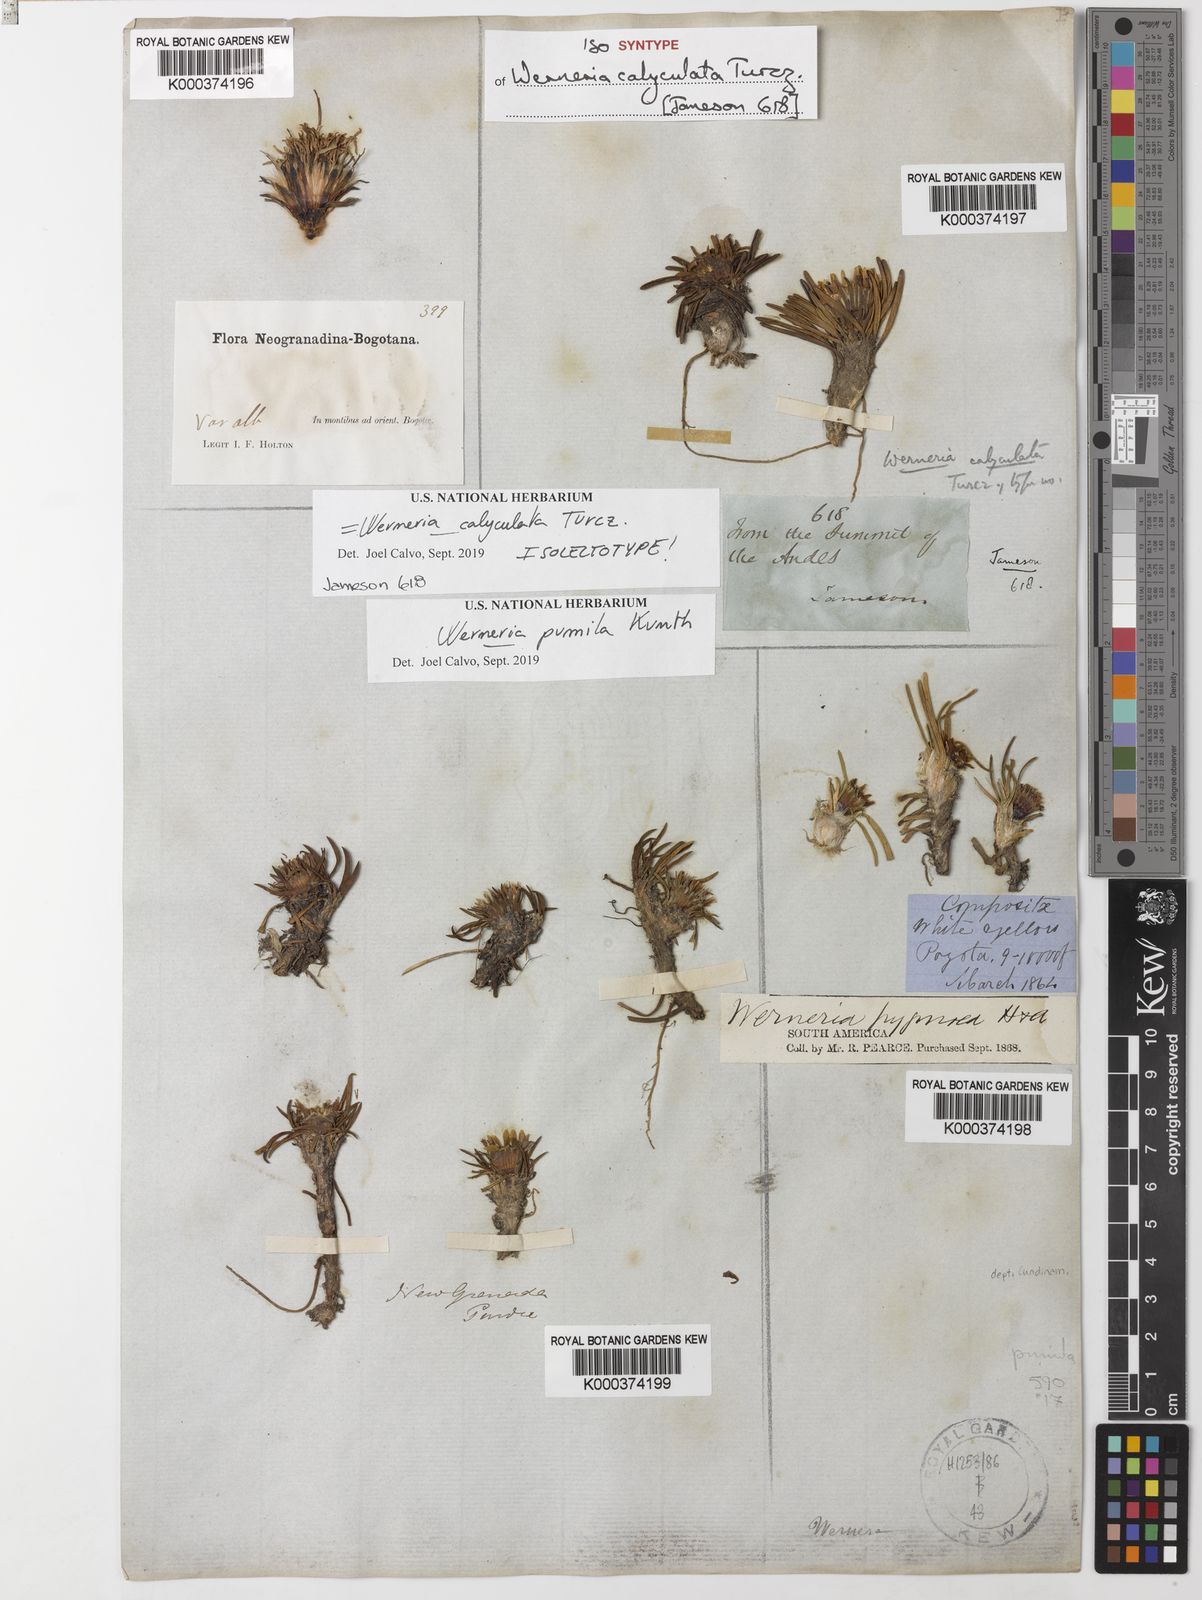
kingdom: Plantae
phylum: Tracheophyta
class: Magnoliopsida
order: Asterales
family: Asteraceae
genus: Rockhausenia
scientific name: Rockhausenia pumila
